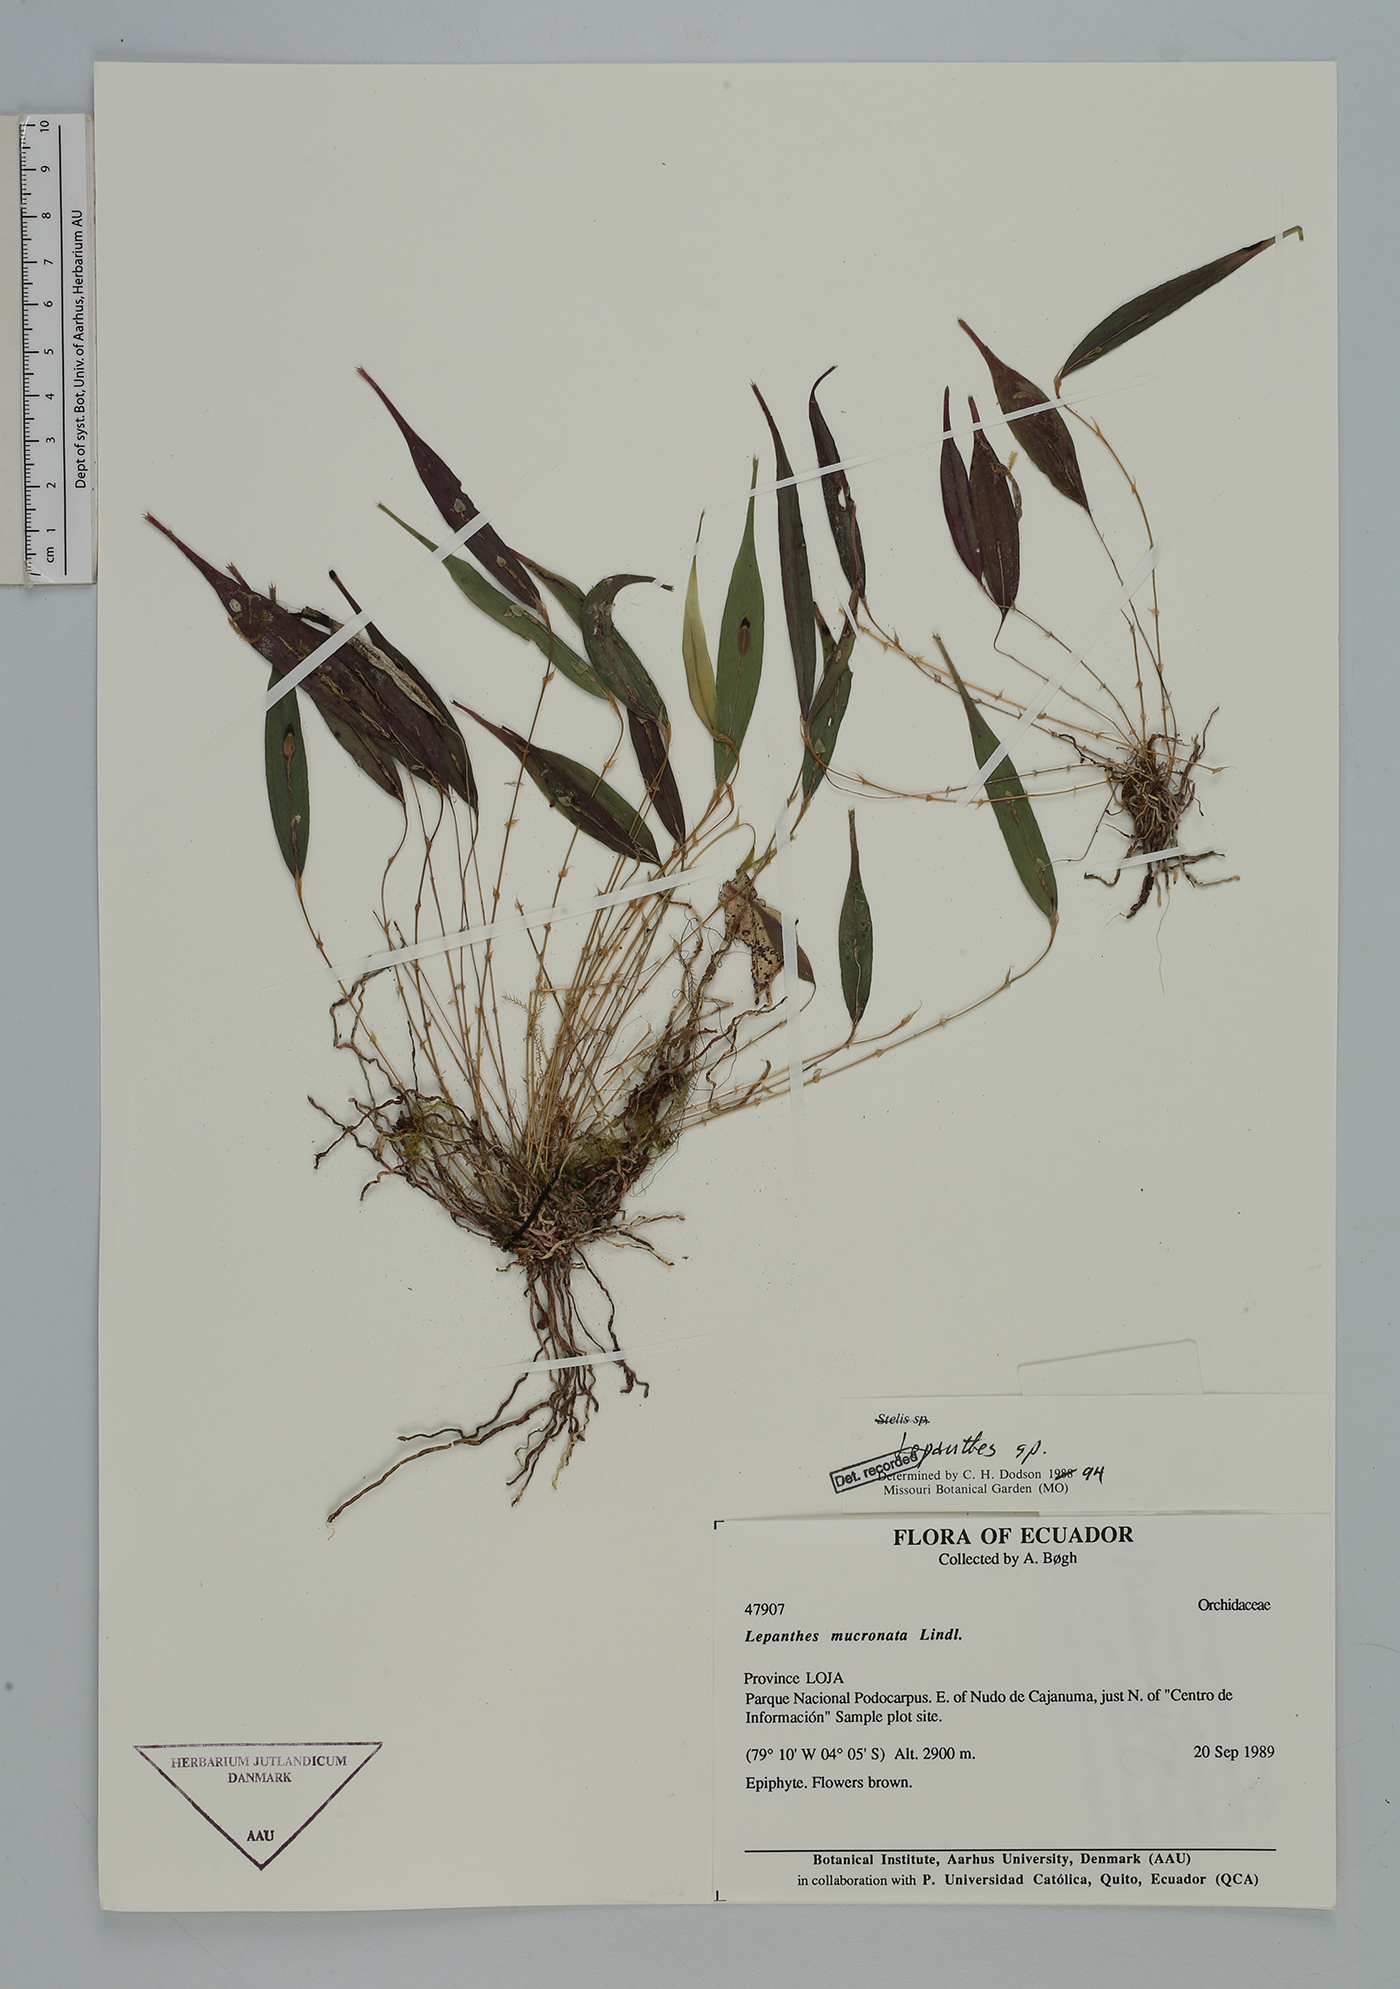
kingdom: Plantae
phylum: Tracheophyta
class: Liliopsida
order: Asparagales
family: Orchidaceae
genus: Lepanthes
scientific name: Lepanthes
